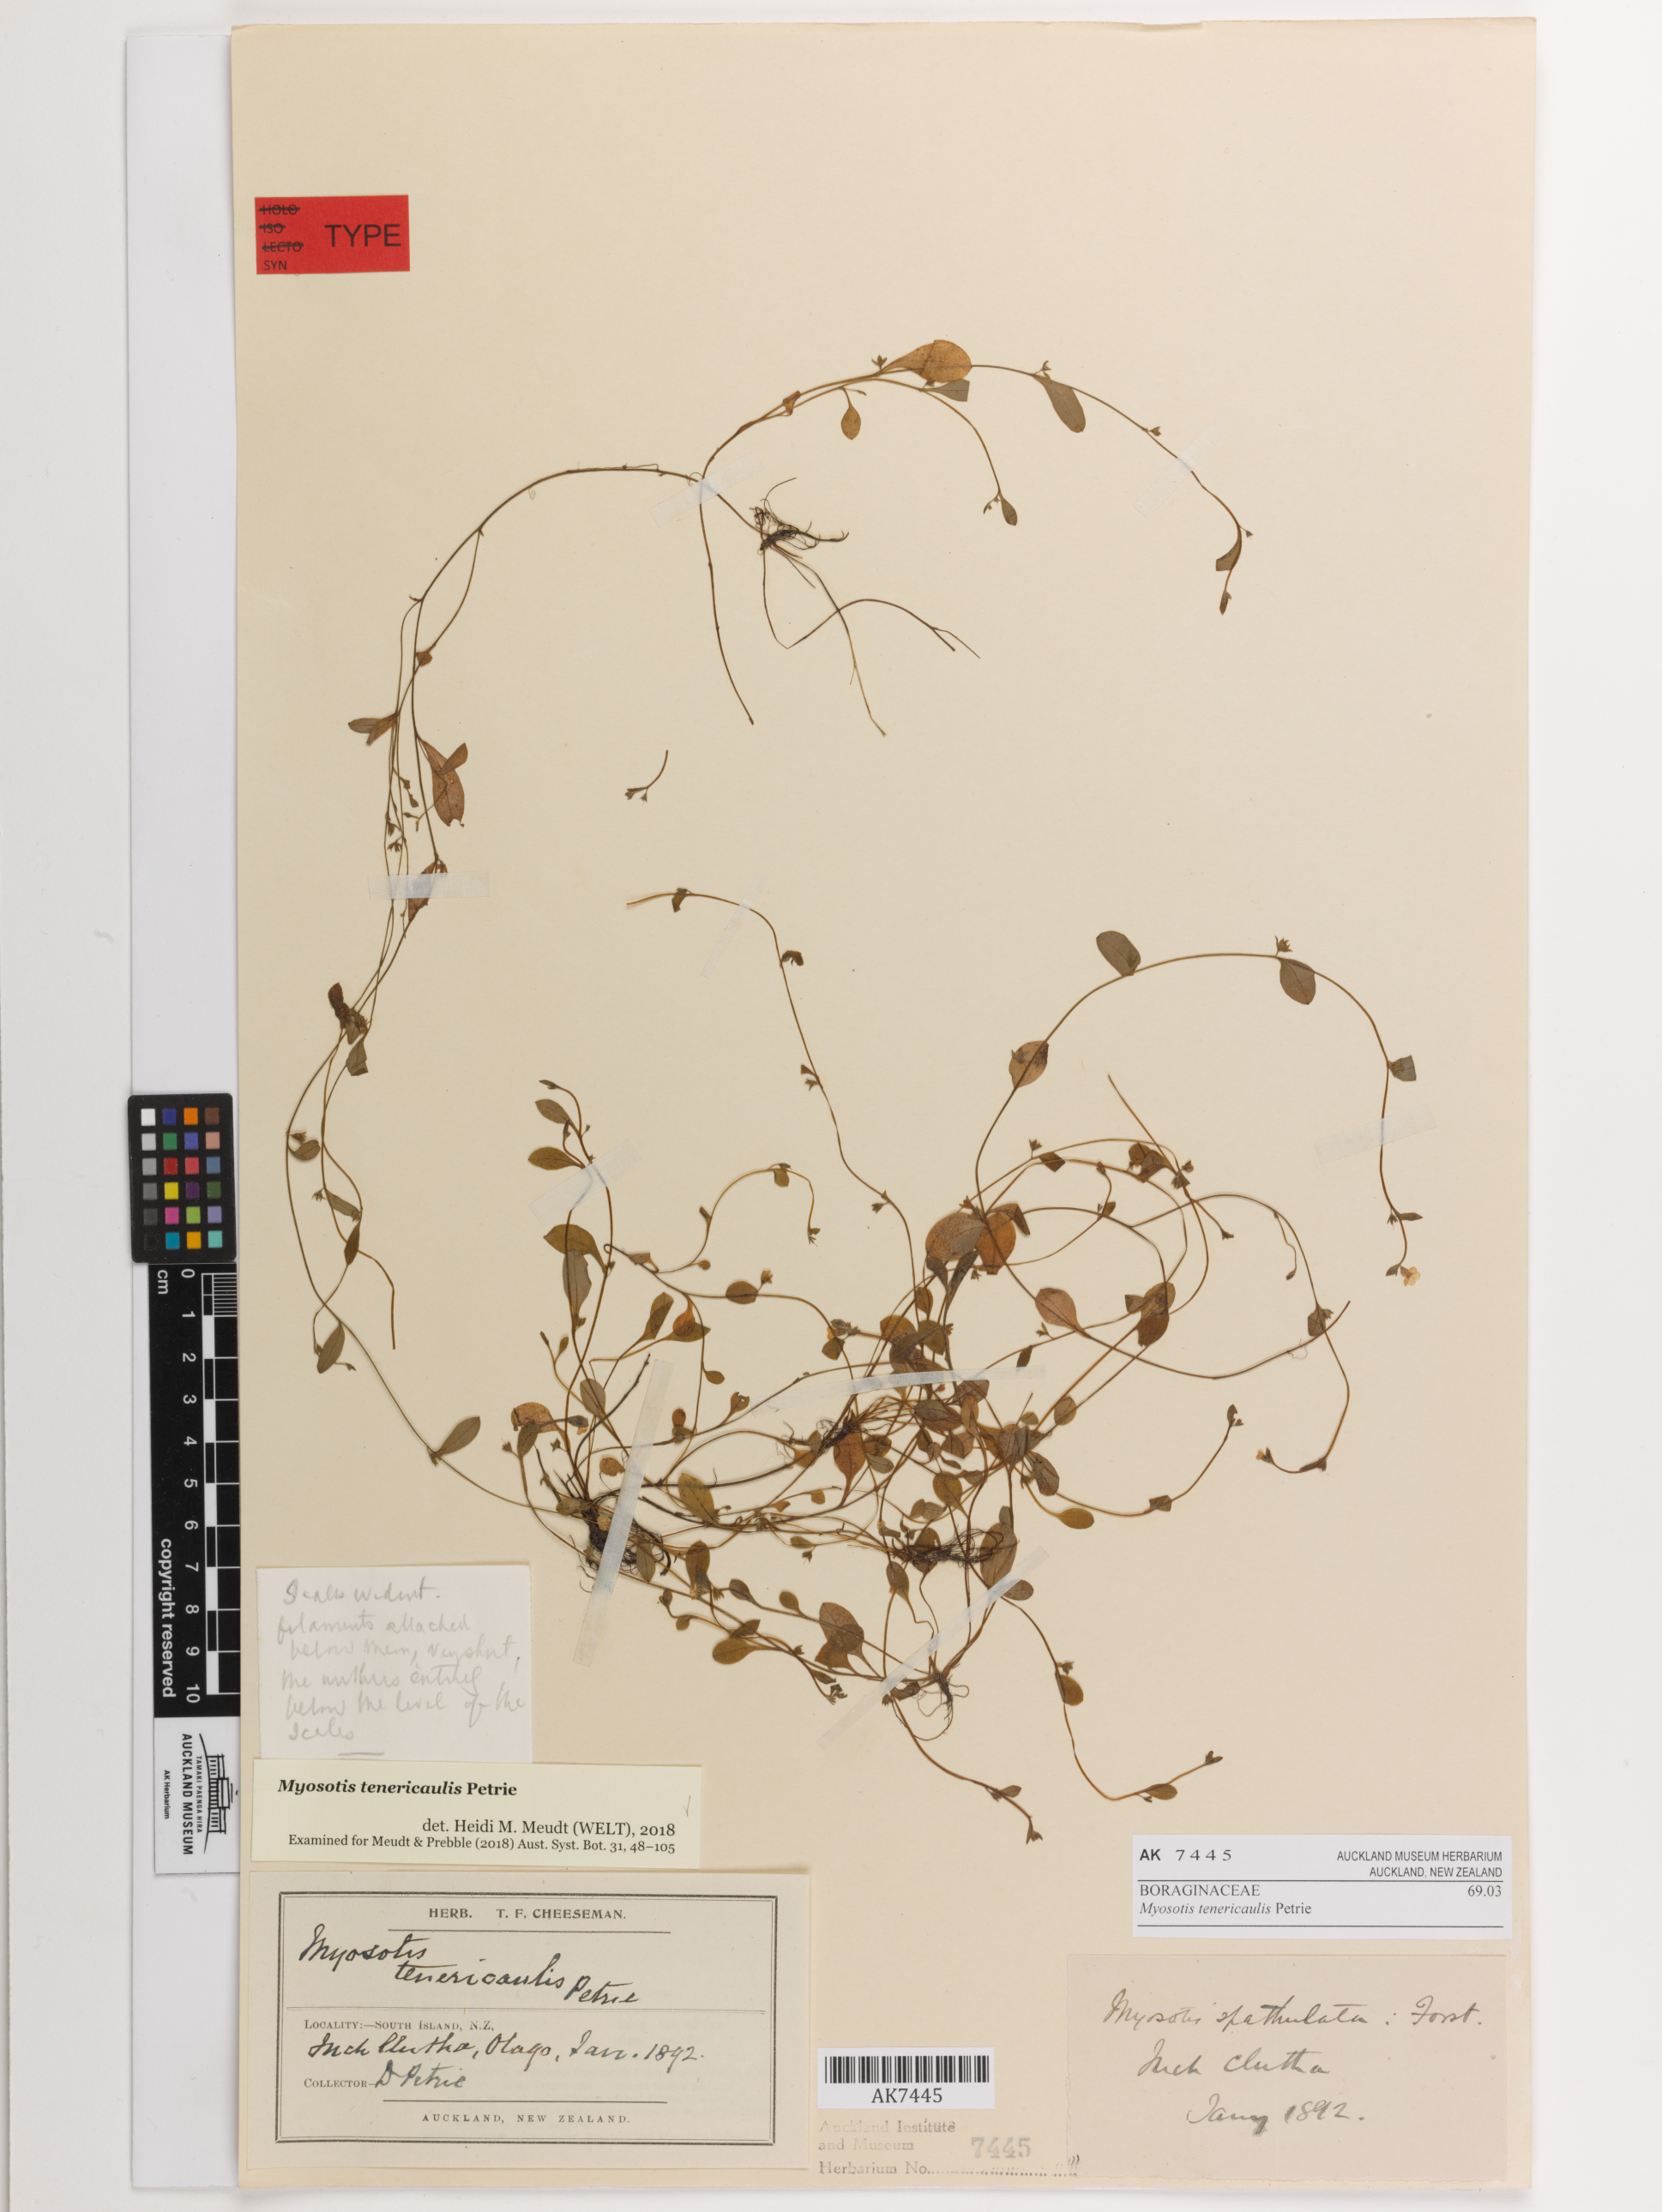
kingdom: Plantae
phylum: Tracheophyta
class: Magnoliopsida
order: Boraginales
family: Boraginaceae
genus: Myosotis
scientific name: Myosotis tenericaulis
